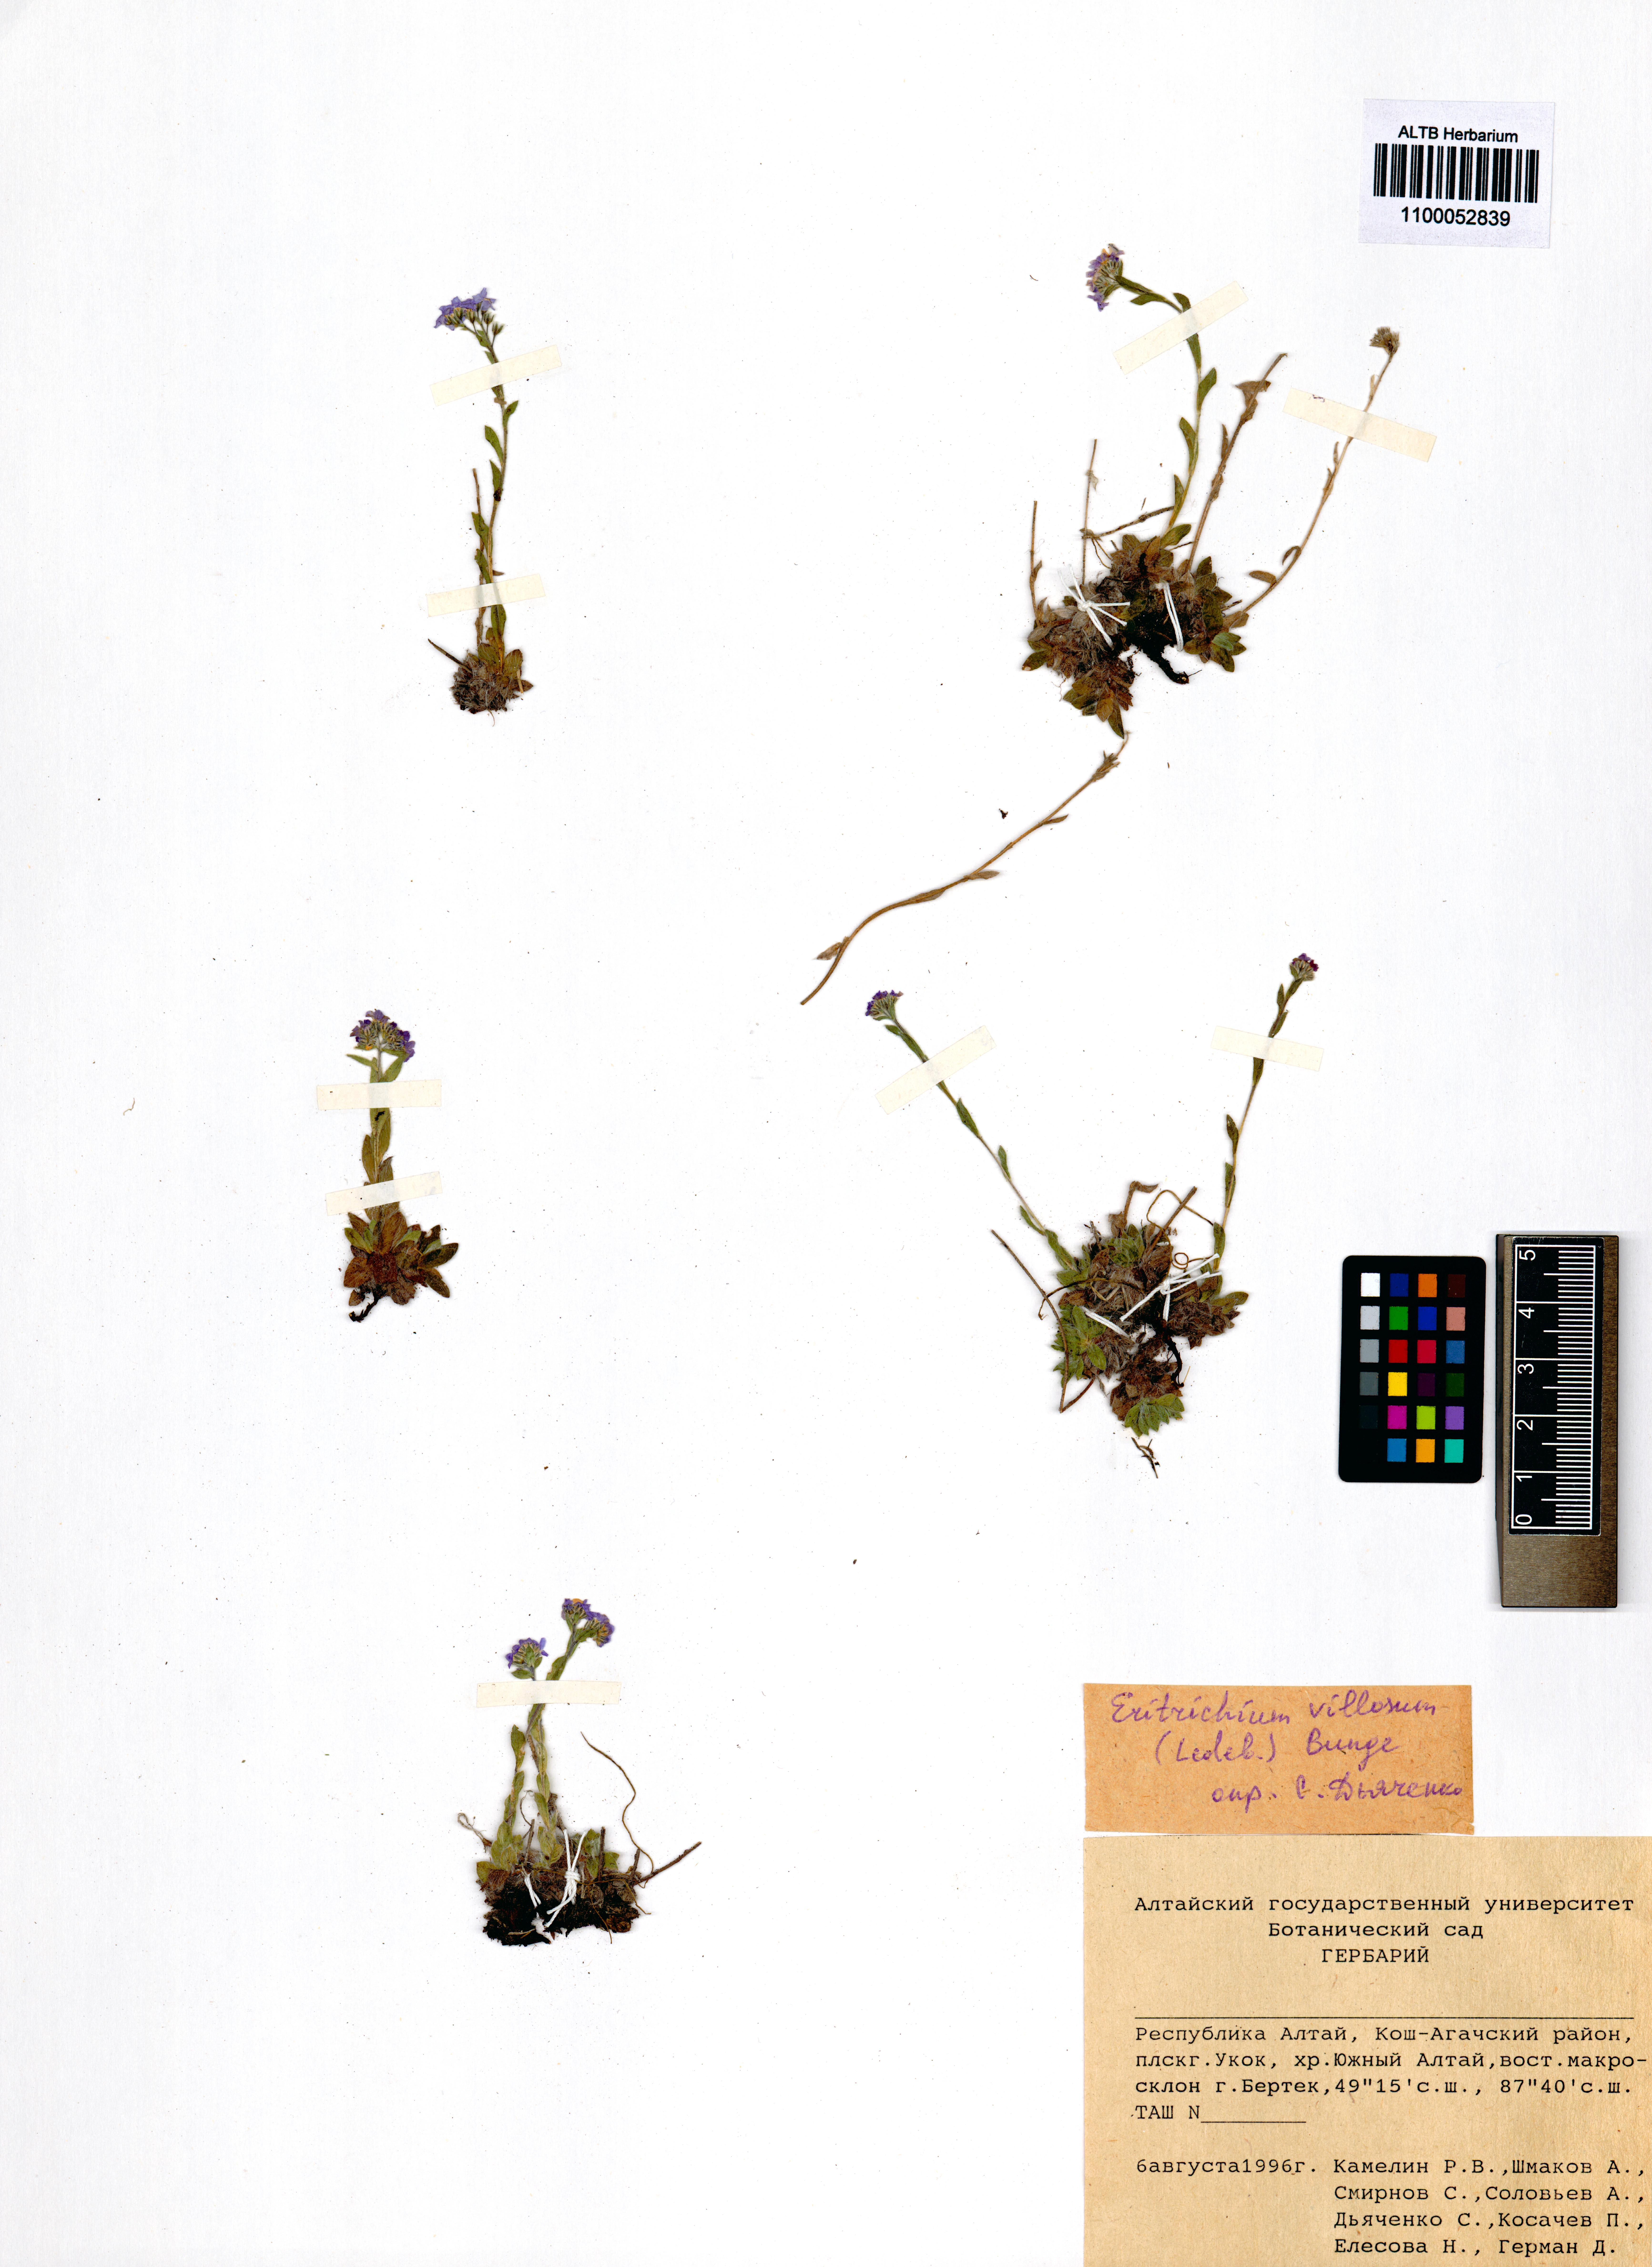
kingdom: Plantae
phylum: Tracheophyta
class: Magnoliopsida
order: Boraginales
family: Boraginaceae
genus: Eritrichium
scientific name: Eritrichium villosum
